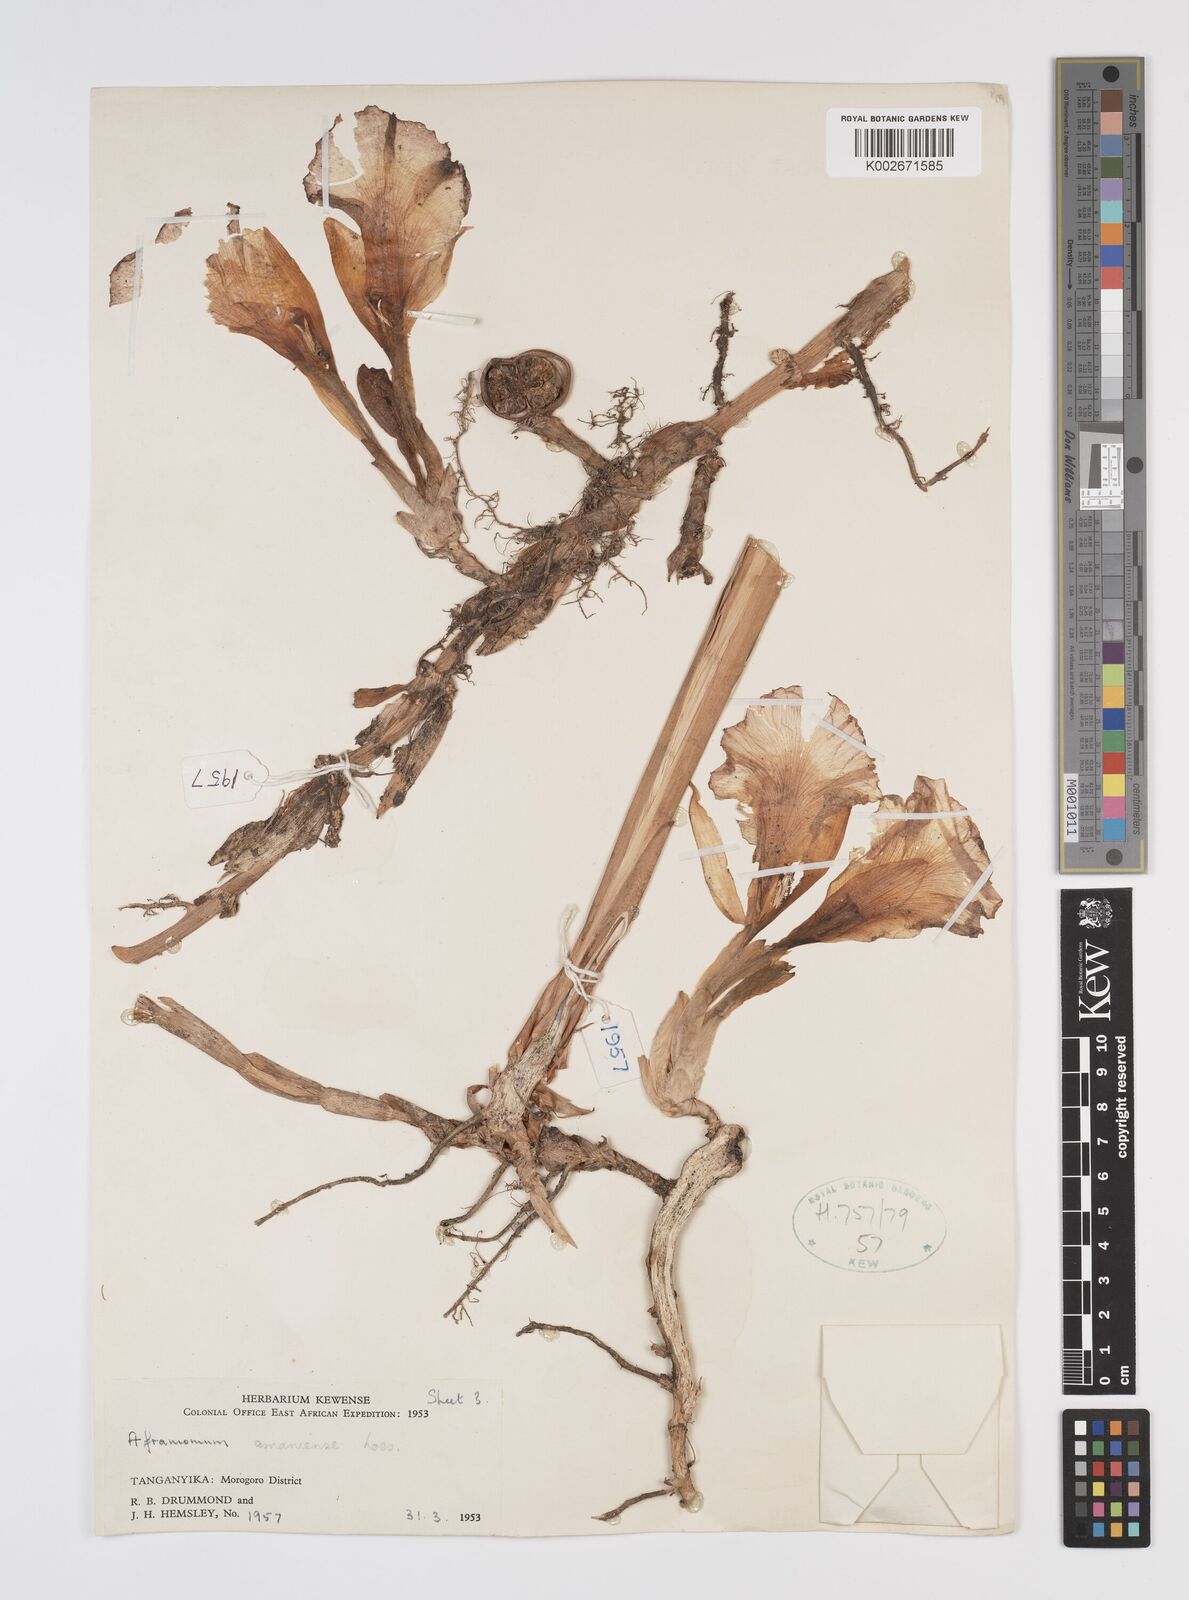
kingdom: Plantae
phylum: Tracheophyta
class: Liliopsida
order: Zingiberales
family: Zingiberaceae
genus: Aframomum
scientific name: Aframomum limbatum
